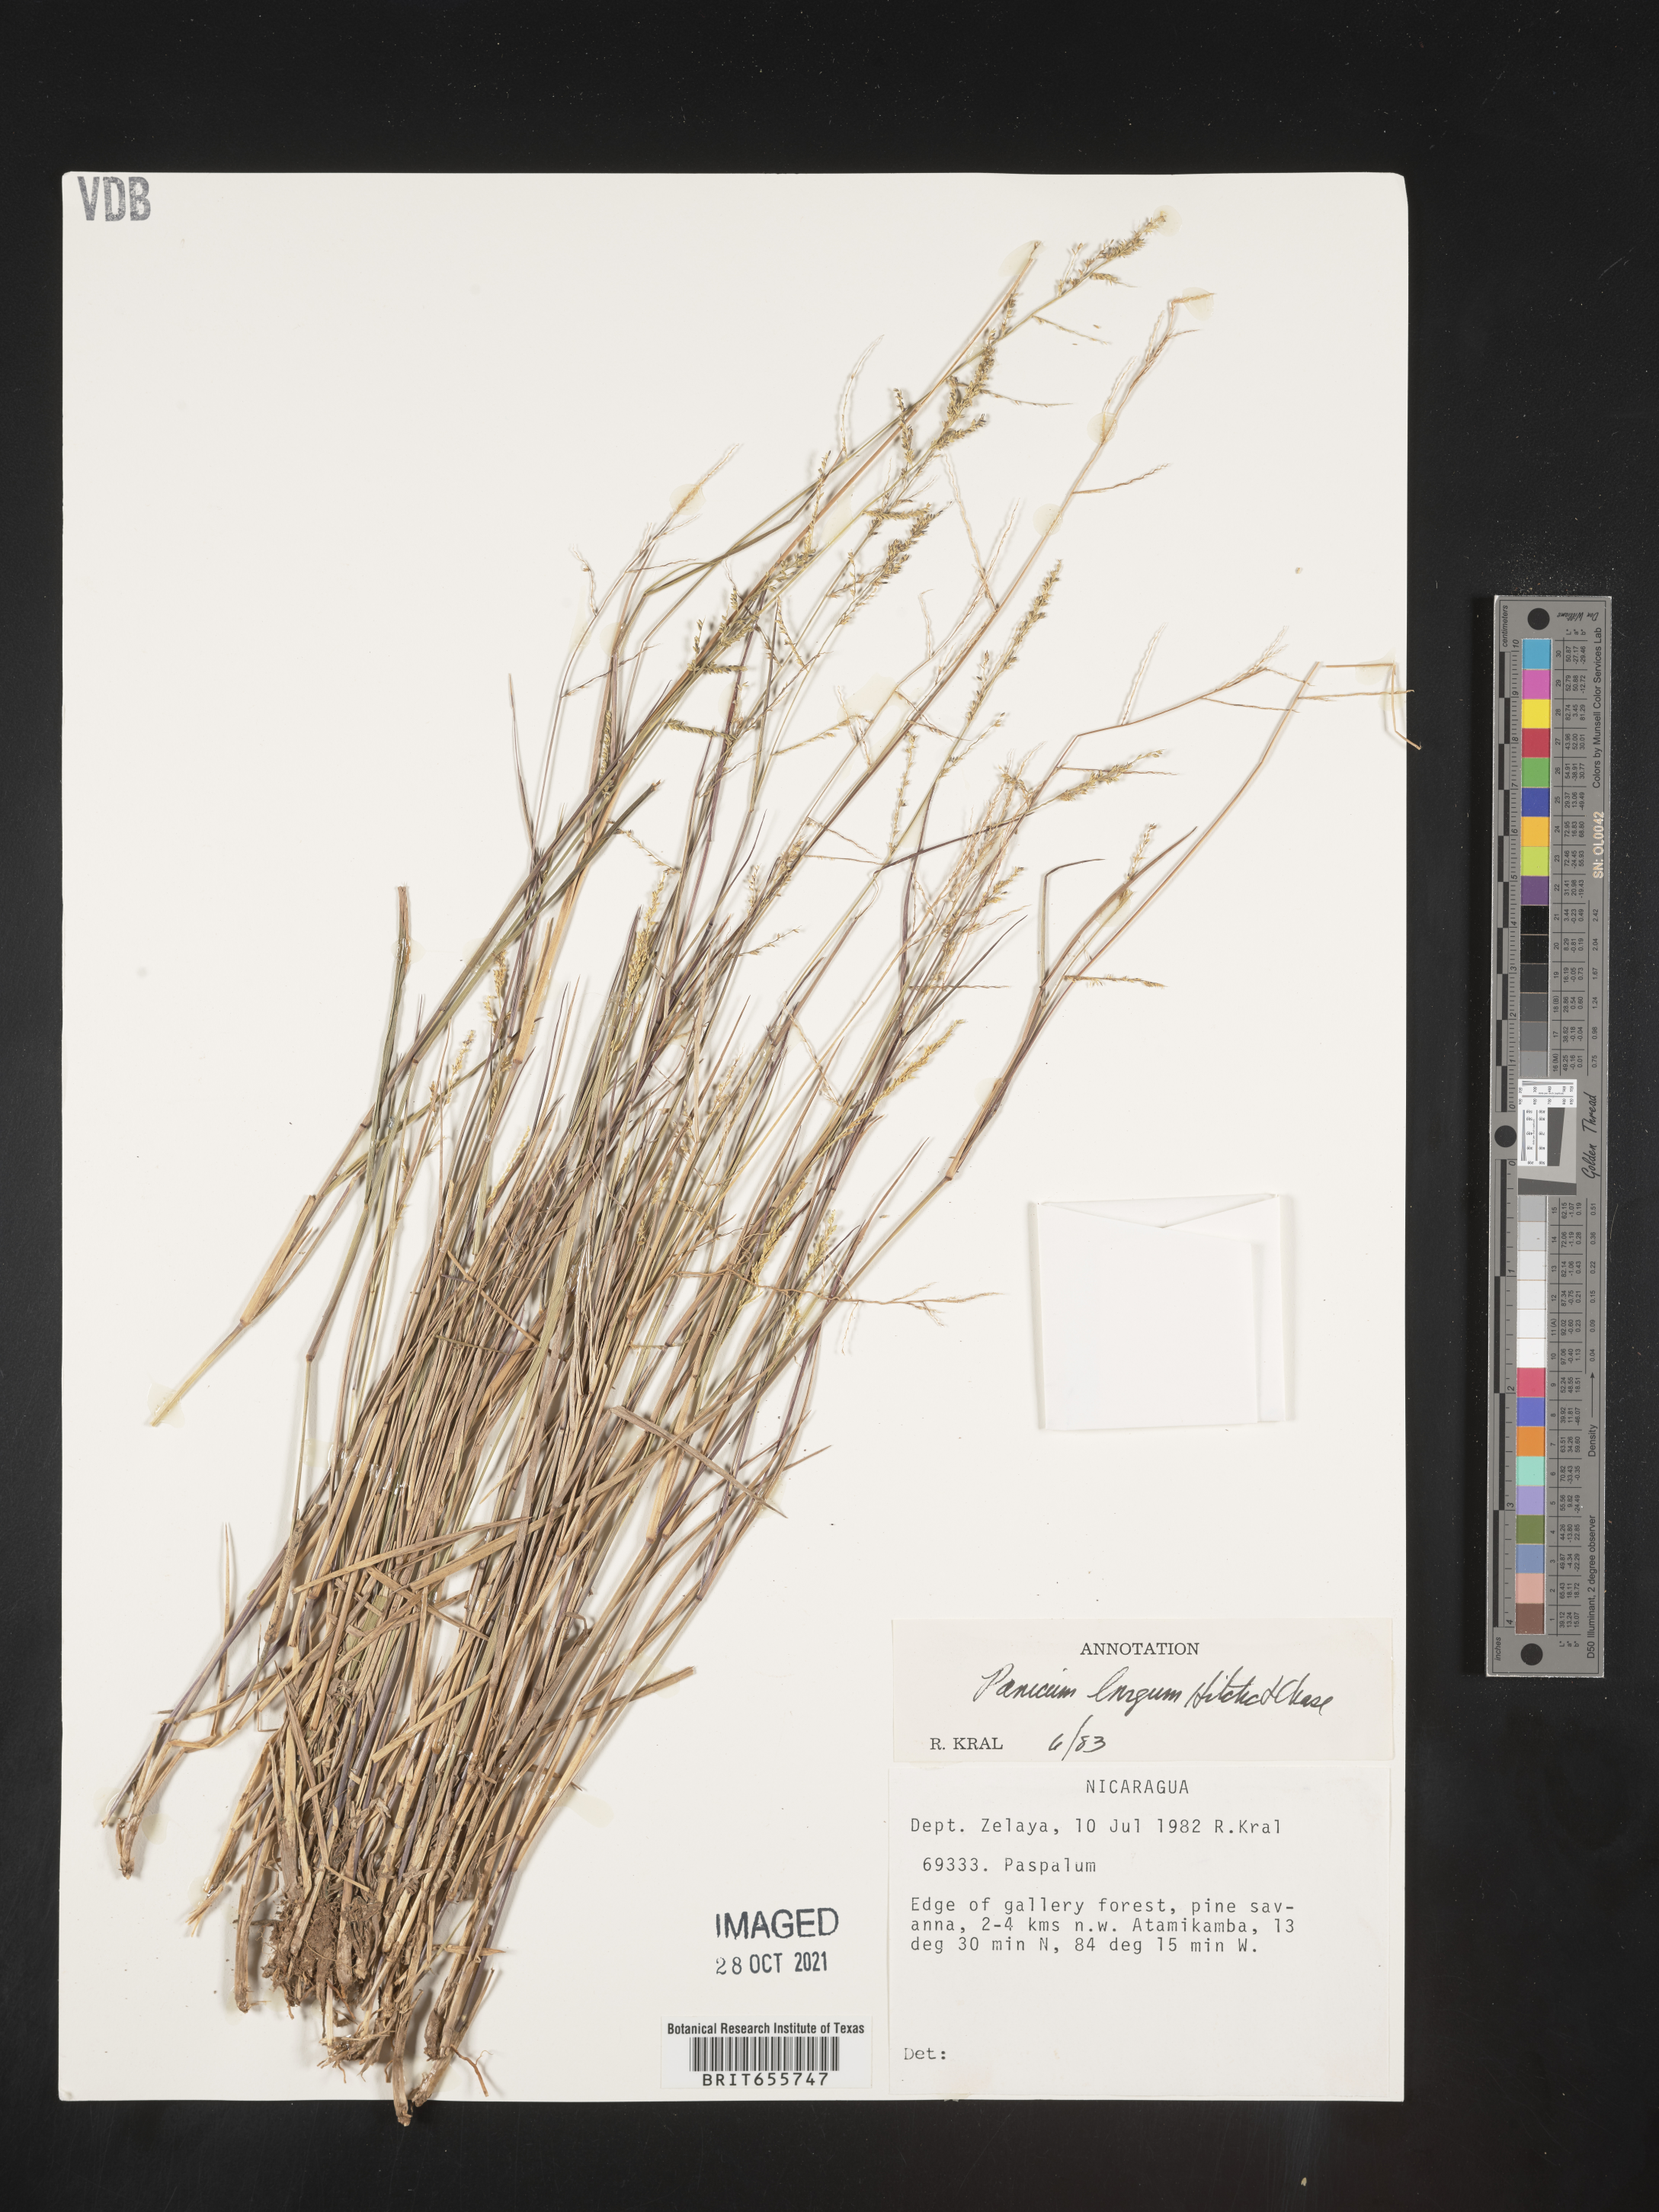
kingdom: Plantae
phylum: Tracheophyta
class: Liliopsida
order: Poales
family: Poaceae
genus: Panicum
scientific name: Panicum
